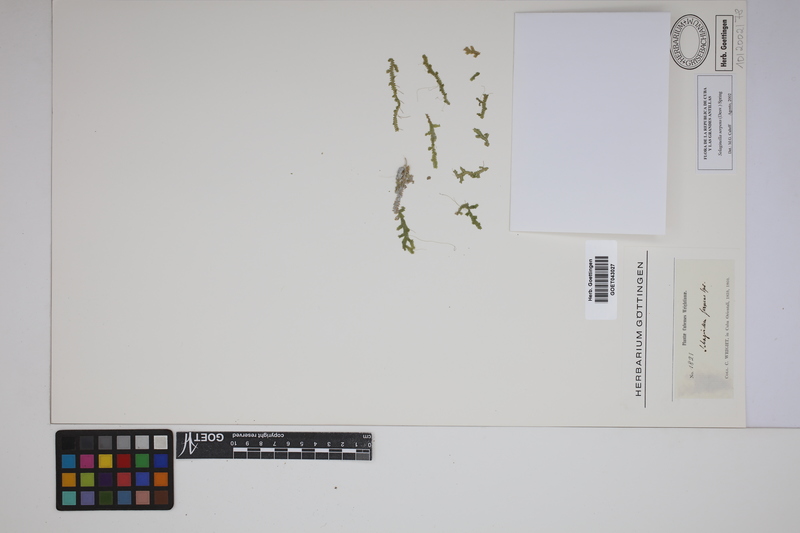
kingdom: Plantae
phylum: Tracheophyta
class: Lycopodiopsida
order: Selaginellales
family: Selaginellaceae
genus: Selaginella
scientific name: Selaginella serpens
